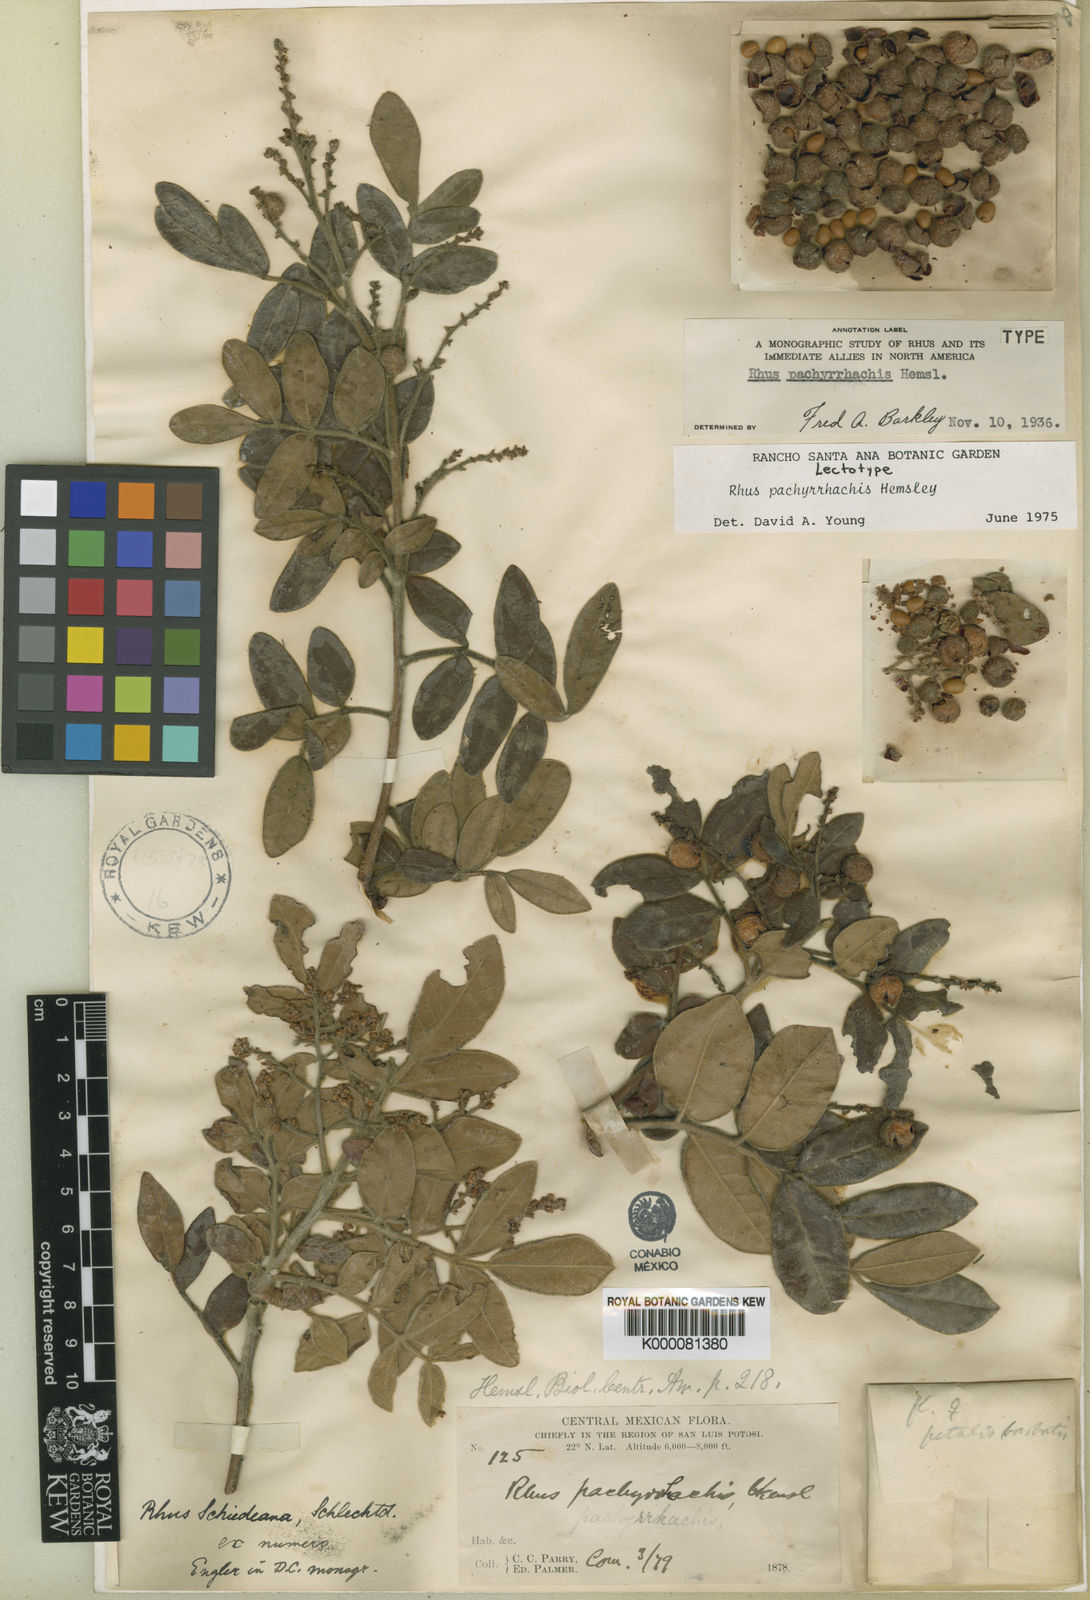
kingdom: Plantae
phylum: Tracheophyta
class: Magnoliopsida
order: Sapindales
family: Anacardiaceae
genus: Rhus
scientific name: Rhus schiedeana
